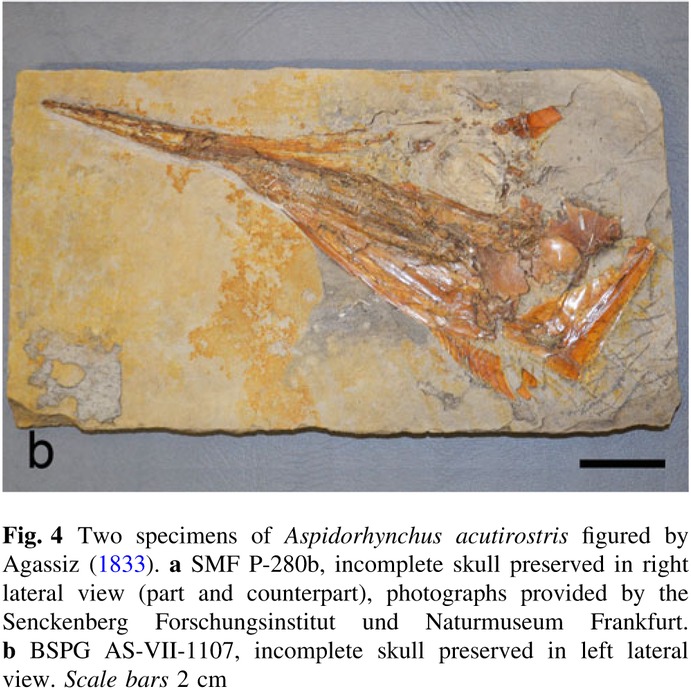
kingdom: Animalia
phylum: Chordata
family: Aspidorhynchidae
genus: Aspidorhynchus
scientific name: Aspidorhynchus acutirostris
